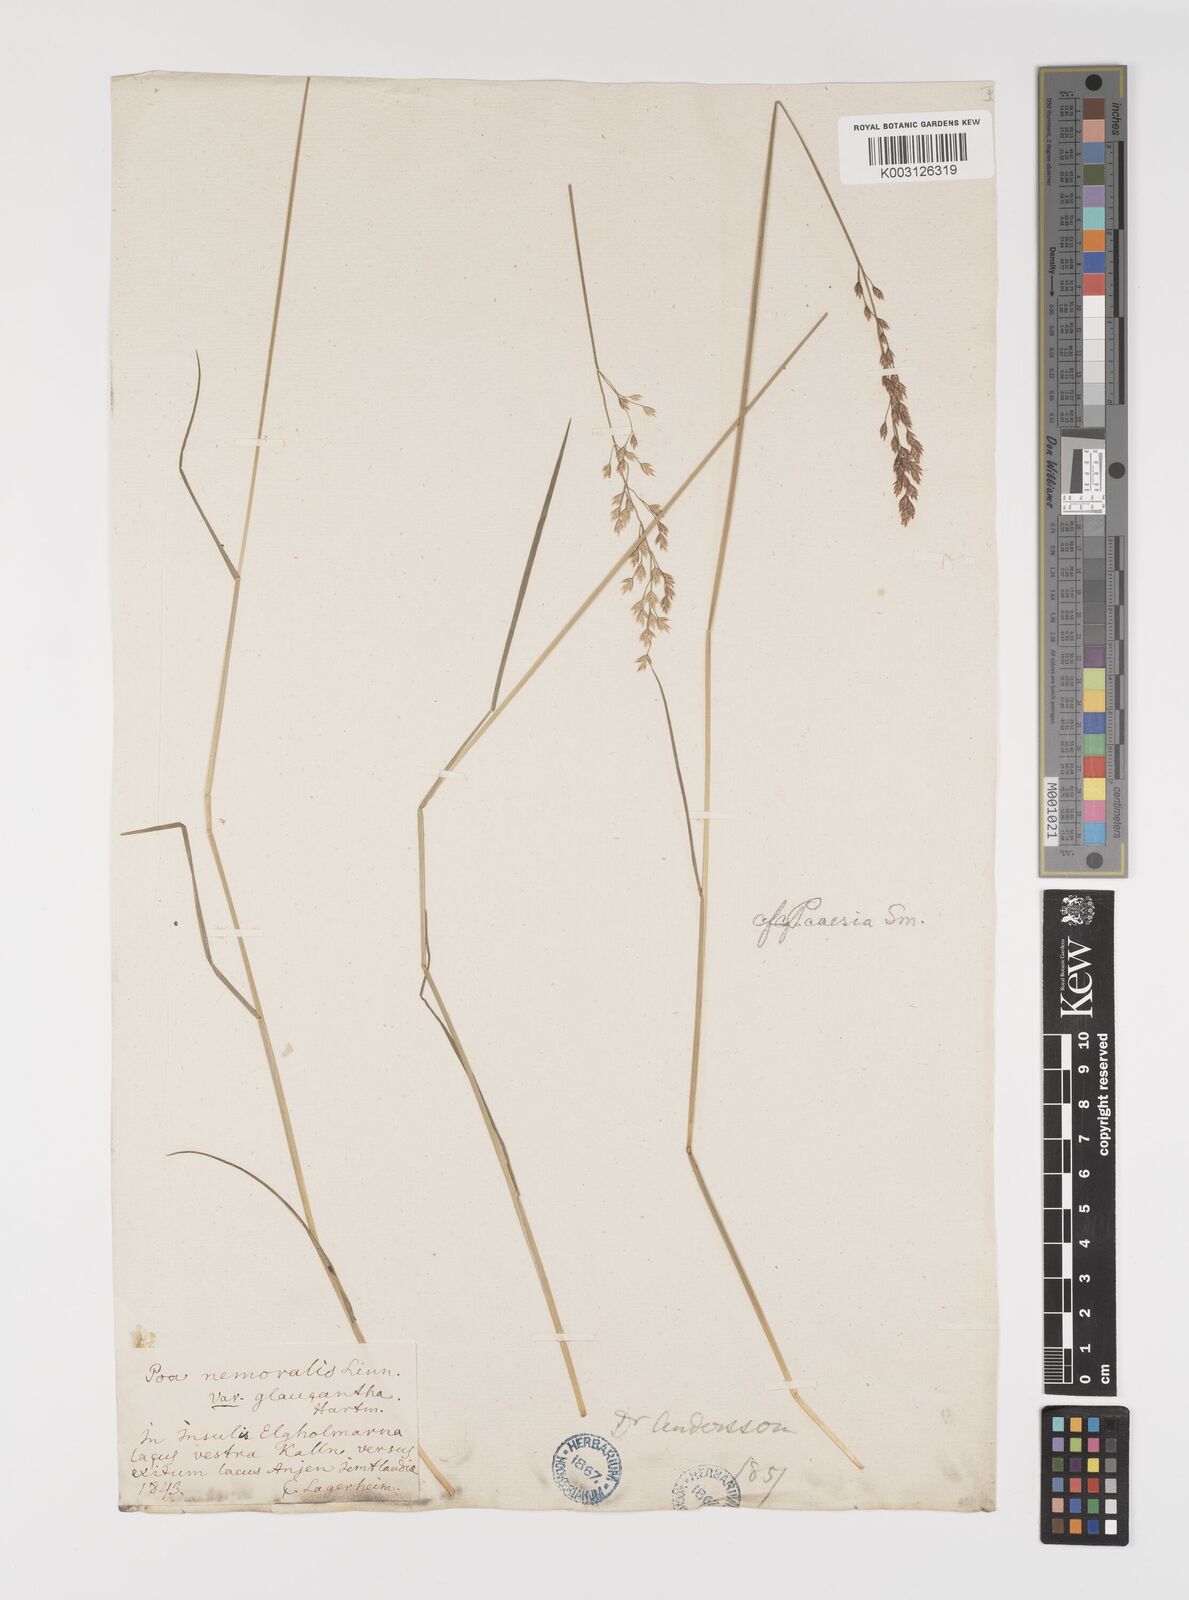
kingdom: Plantae
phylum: Tracheophyta
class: Liliopsida
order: Poales
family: Poaceae
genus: Poa
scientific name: Poa glauca
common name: Glaucous bluegrass
